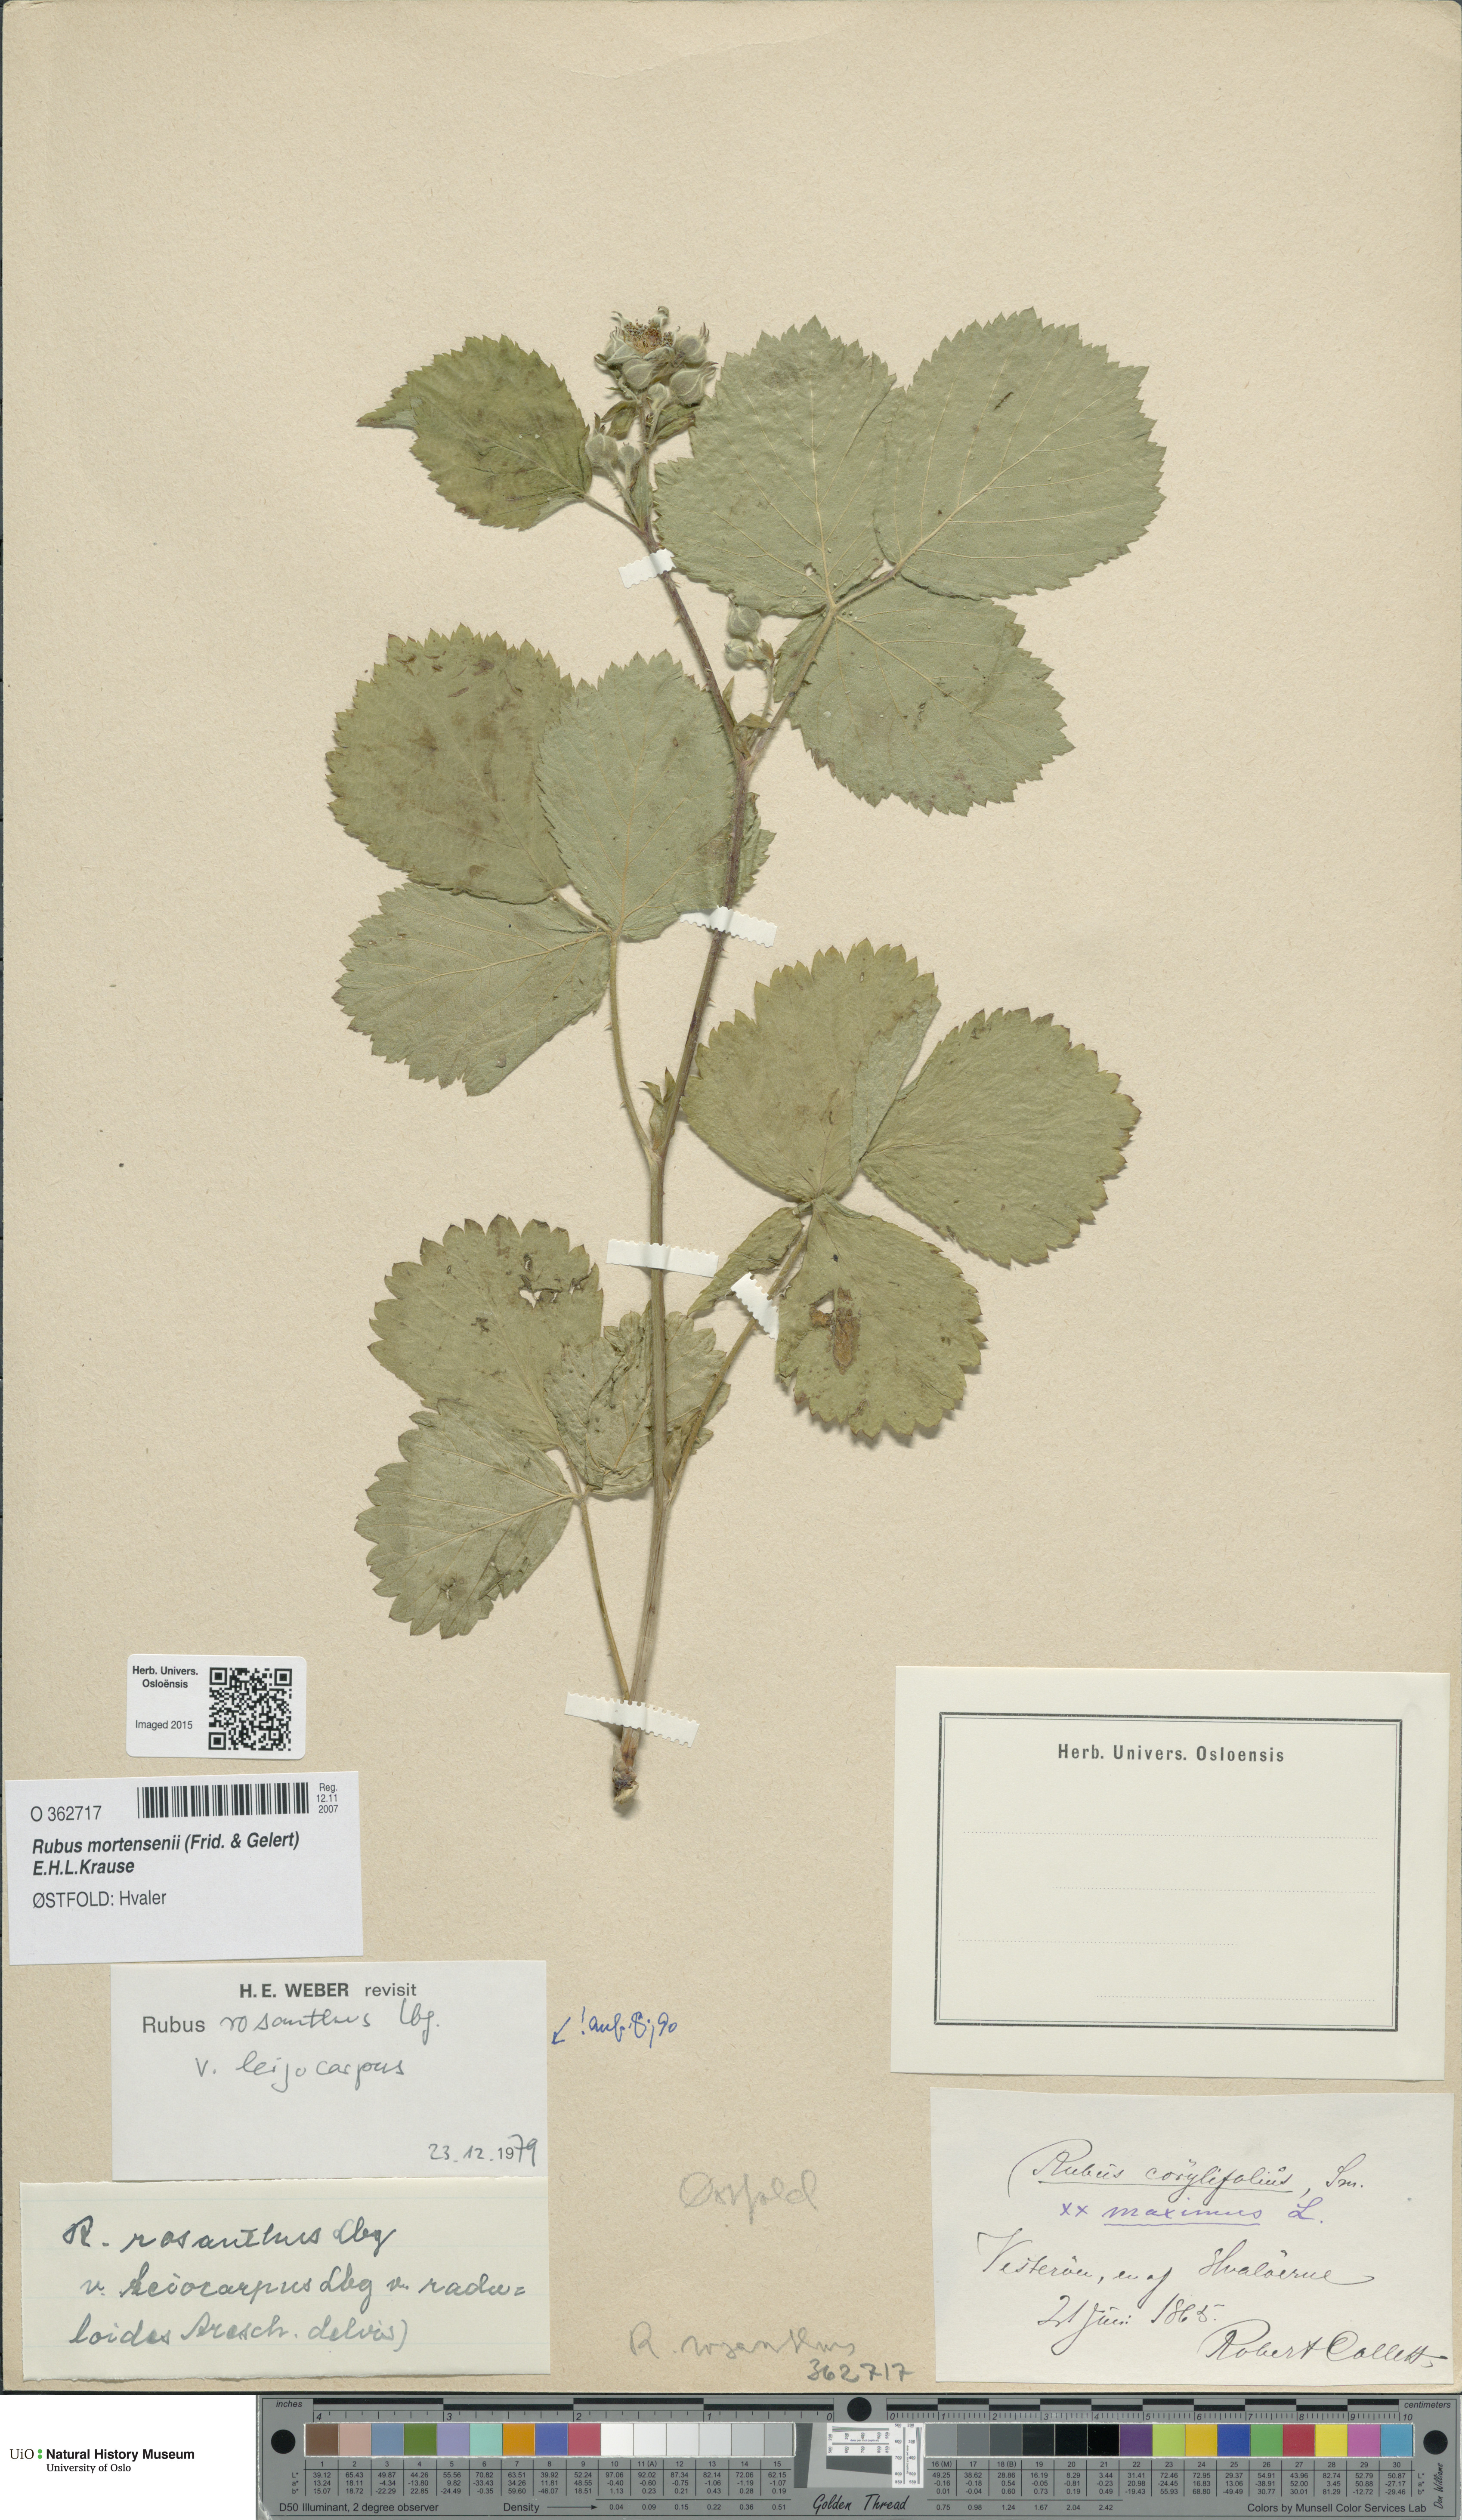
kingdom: Plantae
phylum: Tracheophyta
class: Magnoliopsida
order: Rosales
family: Rosaceae
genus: Rubus
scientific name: Rubus mortensenii
